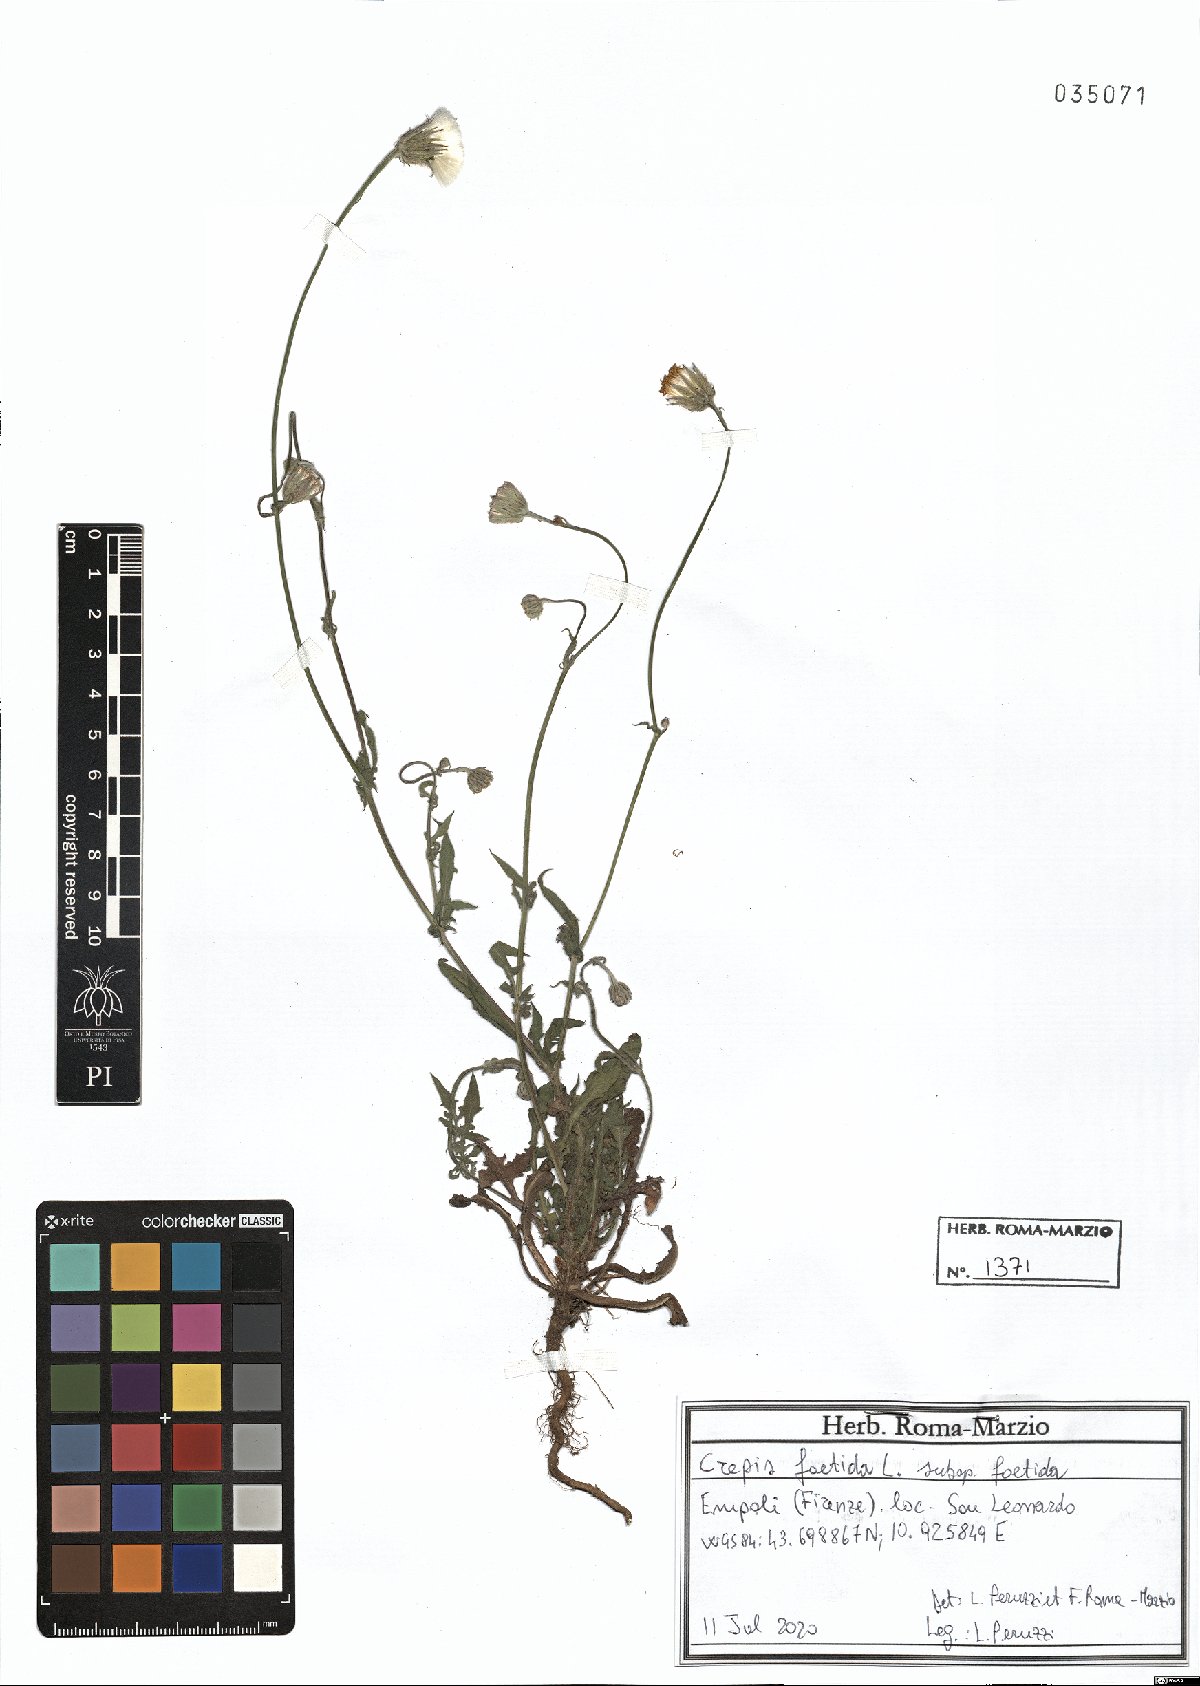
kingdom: Plantae
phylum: Tracheophyta
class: Magnoliopsida
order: Asterales
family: Asteraceae
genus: Crepis
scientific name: Crepis foetida
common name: Stinking hawk's-beard
